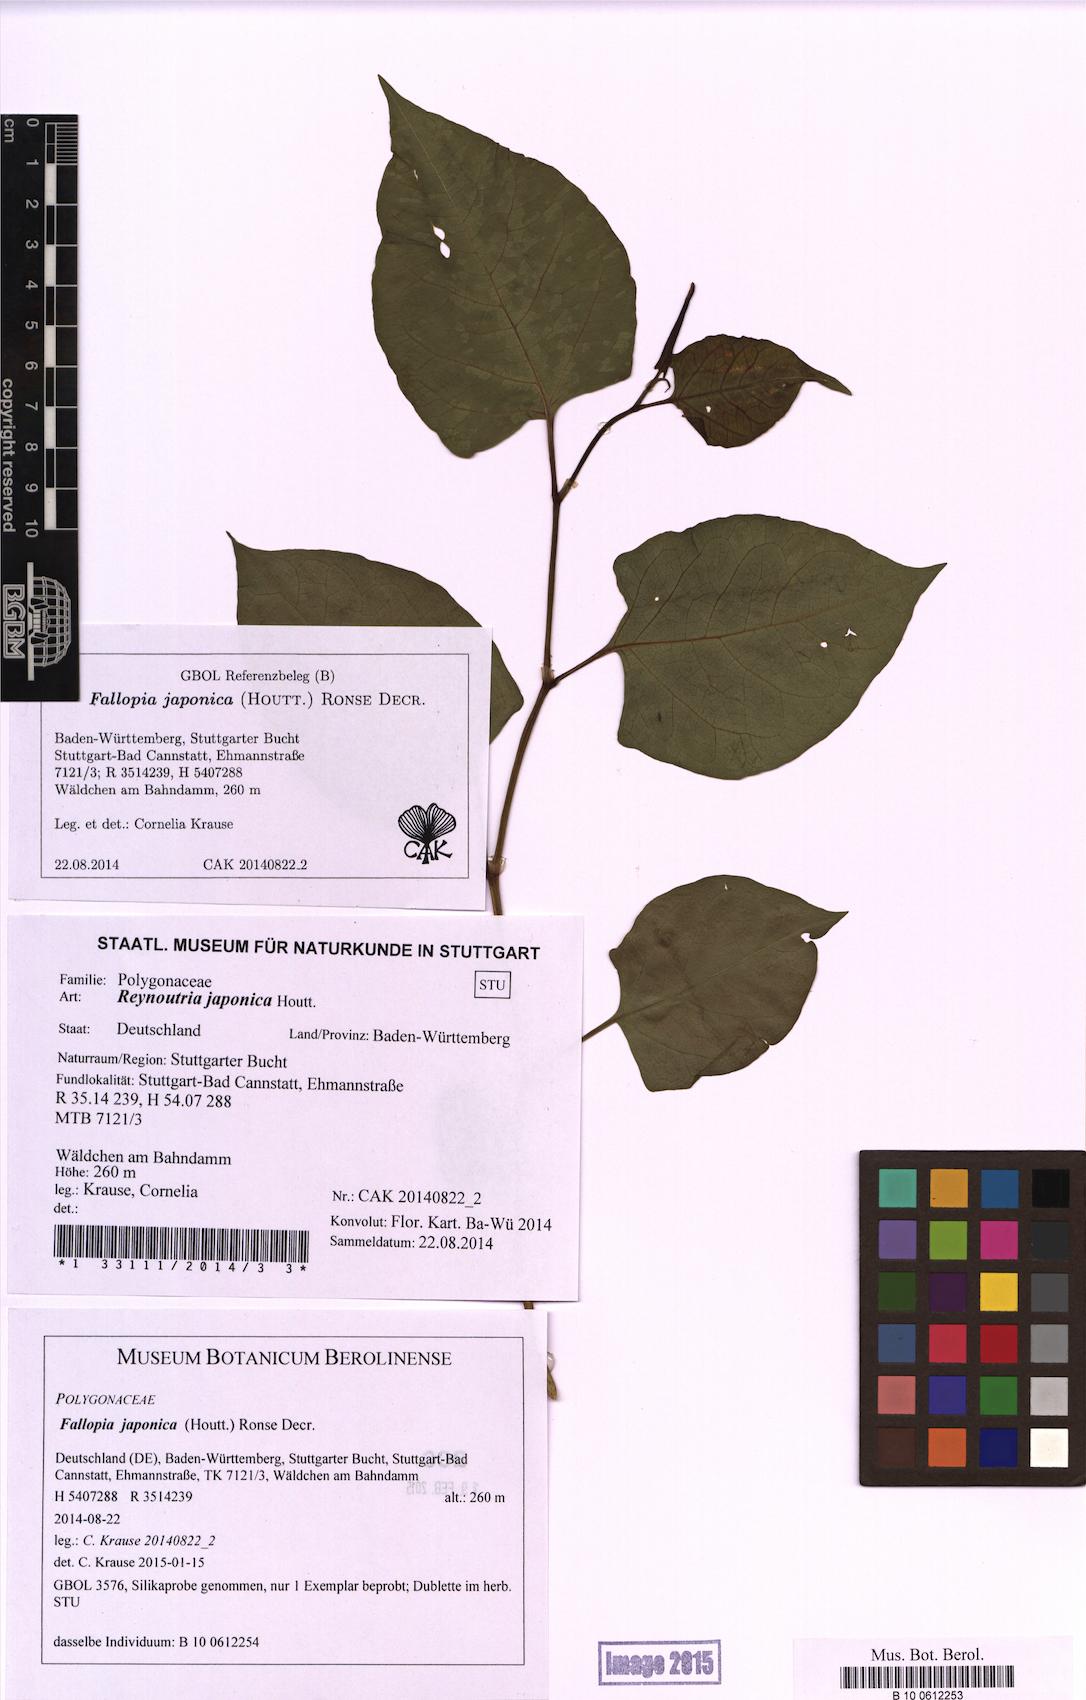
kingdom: Plantae
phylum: Tracheophyta
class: Magnoliopsida
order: Caryophyllales
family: Polygonaceae
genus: Reynoutria
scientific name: Reynoutria japonica
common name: Japanese knotweed
